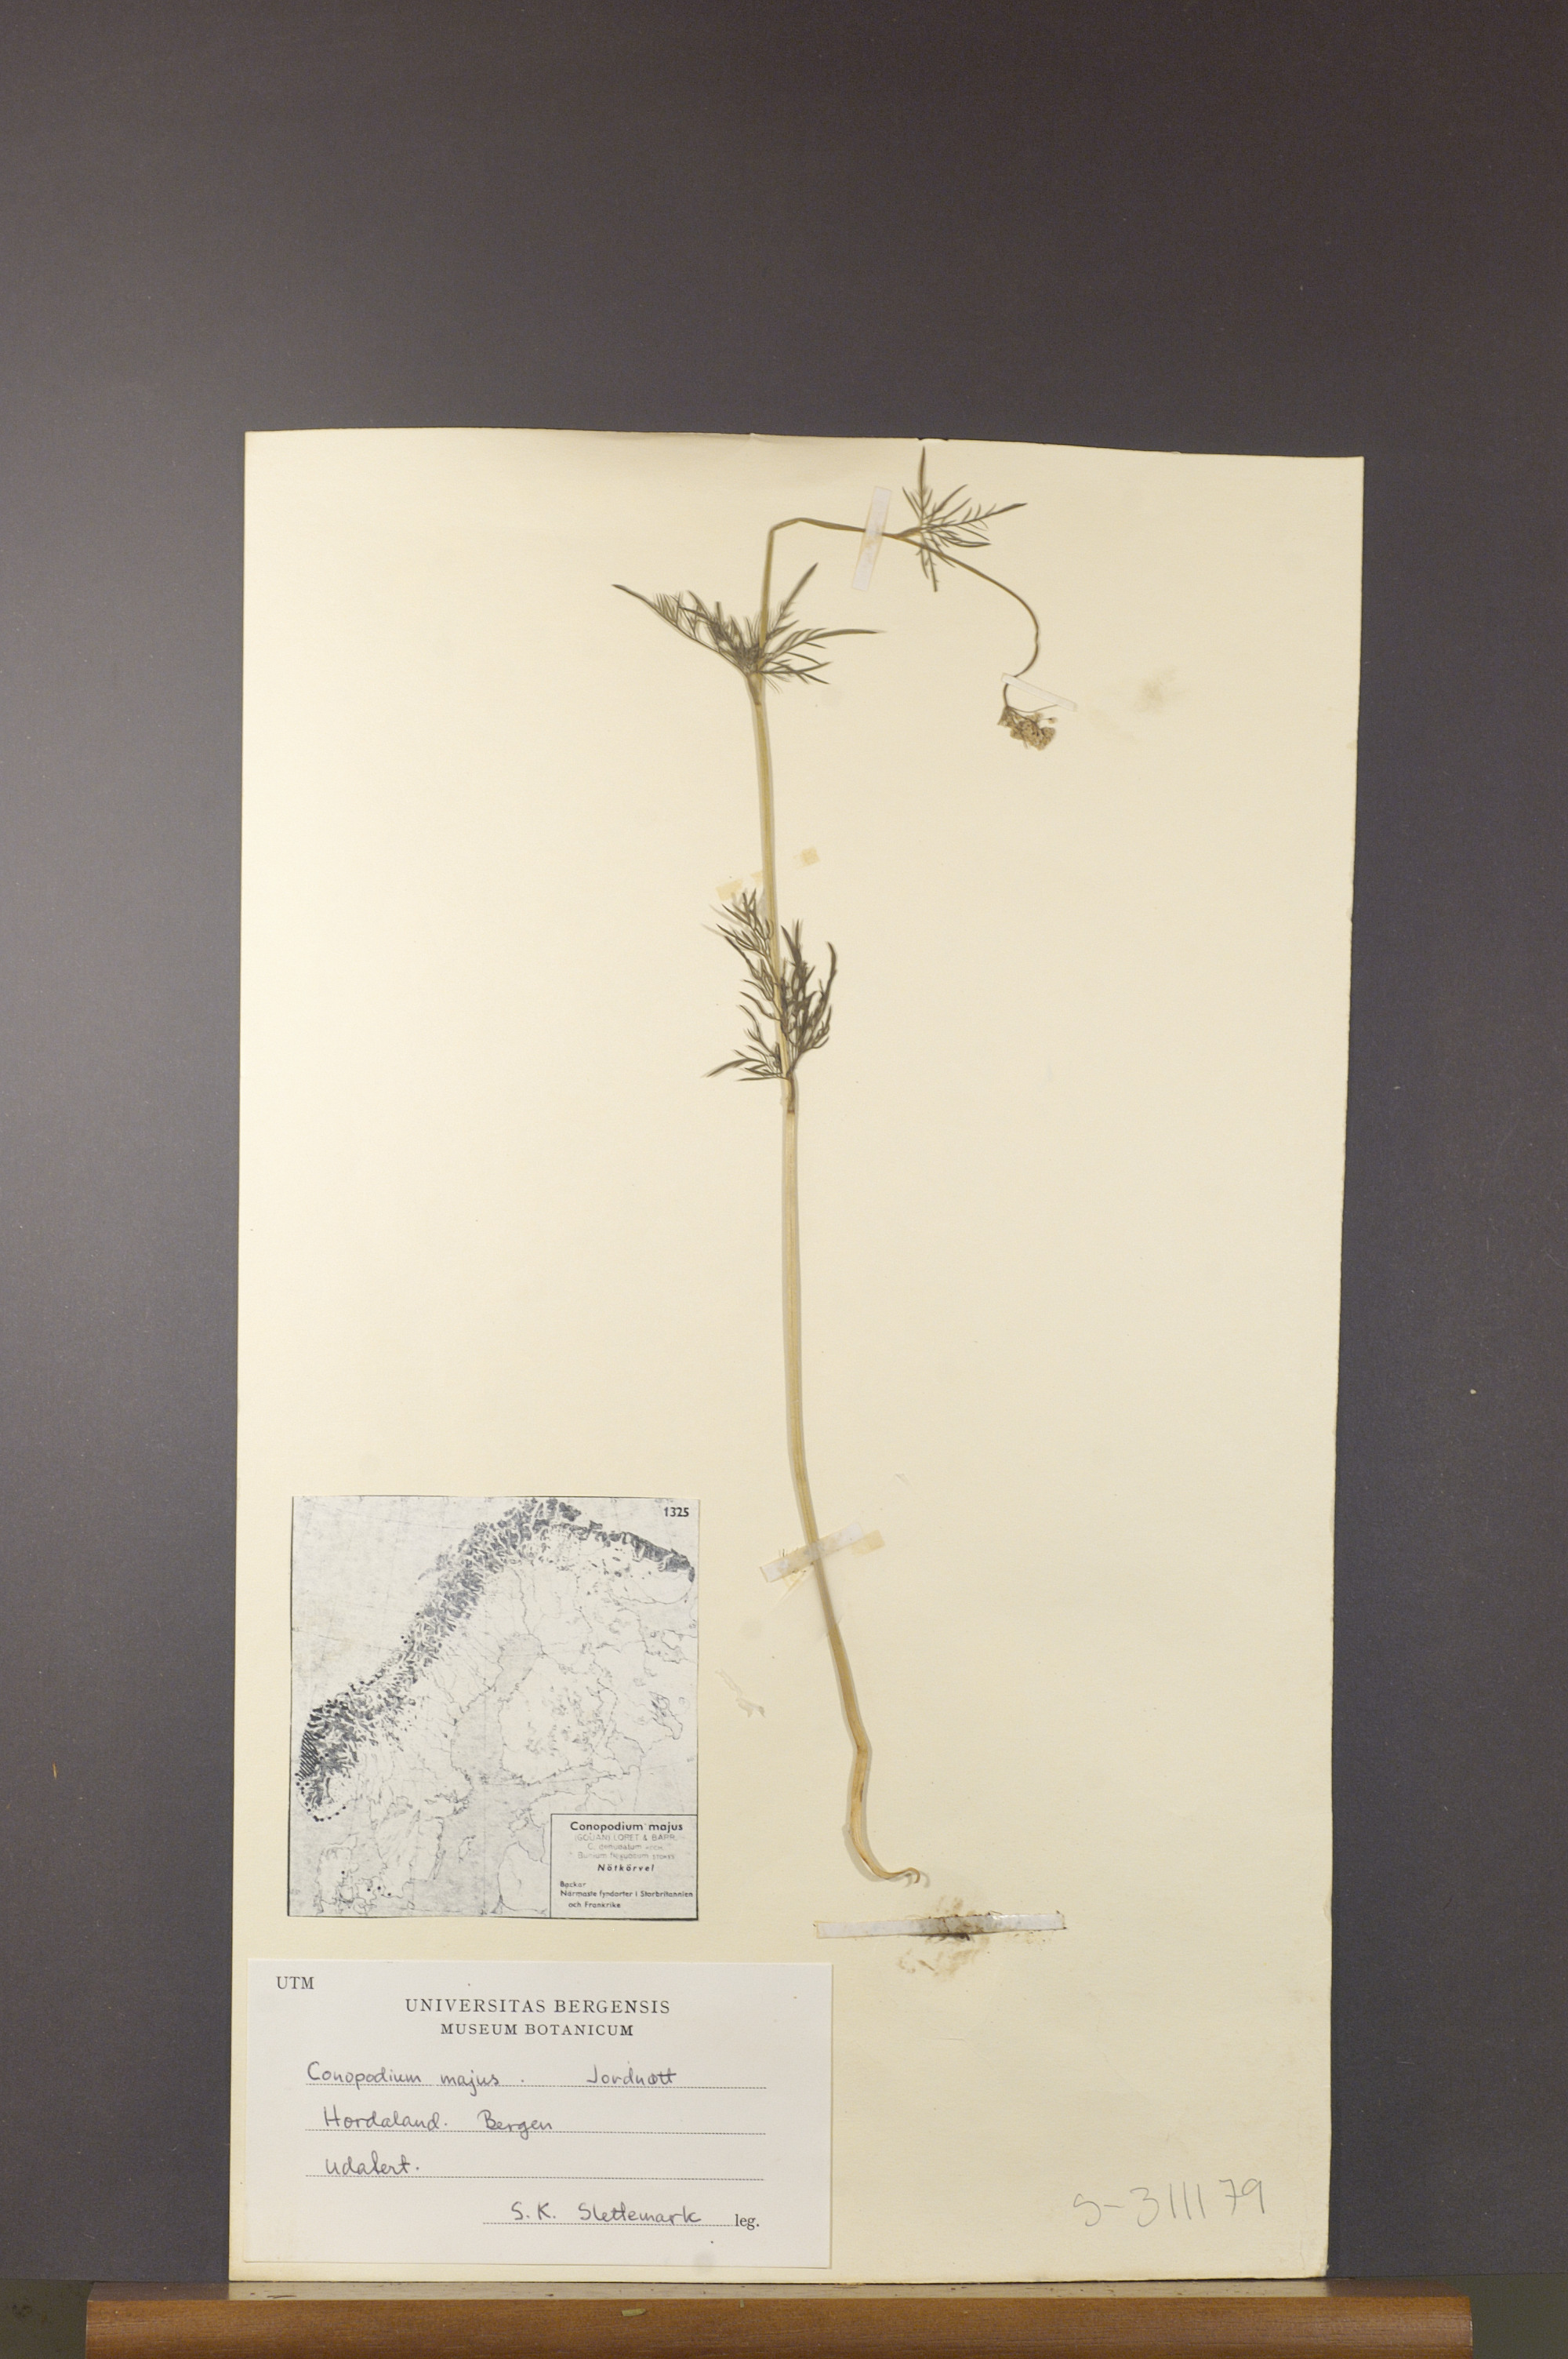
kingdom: Plantae
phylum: Tracheophyta
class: Magnoliopsida
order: Apiales
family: Apiaceae
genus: Conopodium
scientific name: Conopodium majus
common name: Pignut
